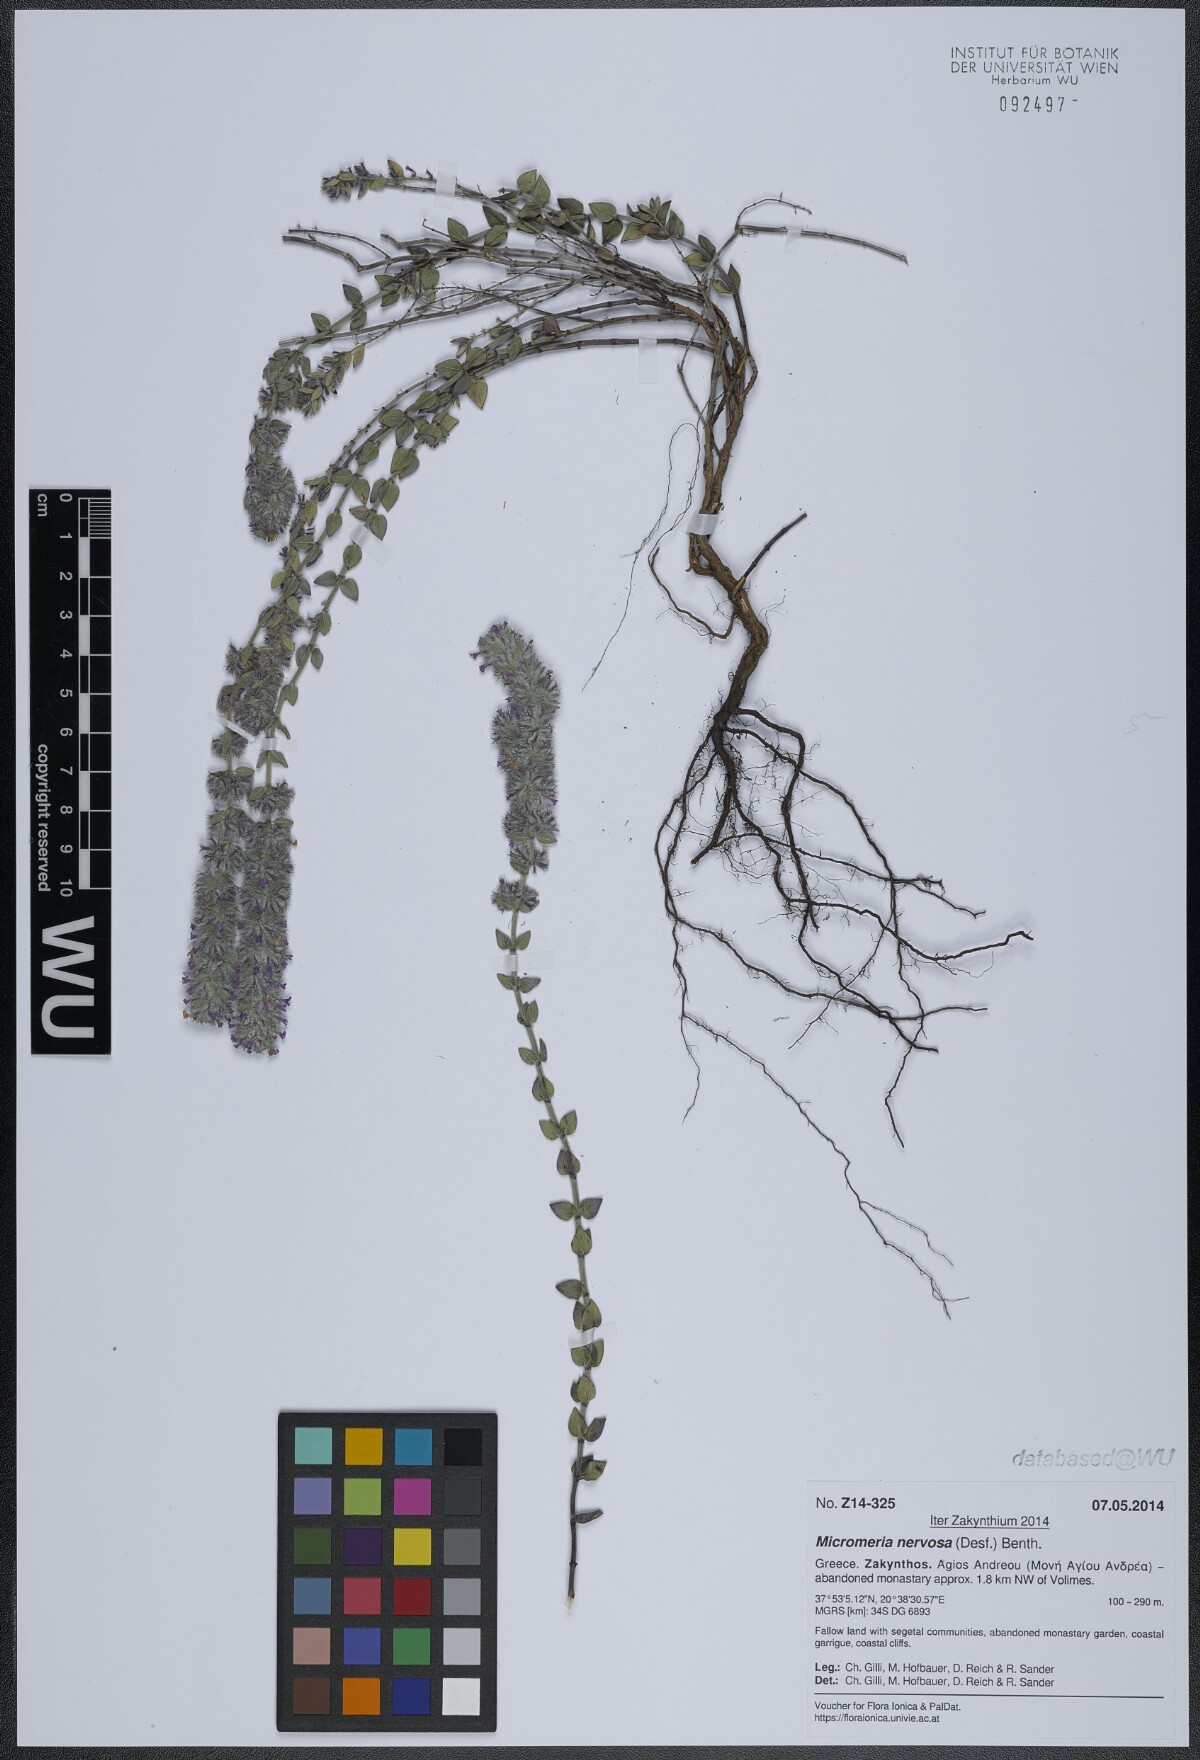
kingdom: Plantae
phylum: Tracheophyta
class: Magnoliopsida
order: Lamiales
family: Lamiaceae
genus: Micromeria
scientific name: Micromeria nervosa
